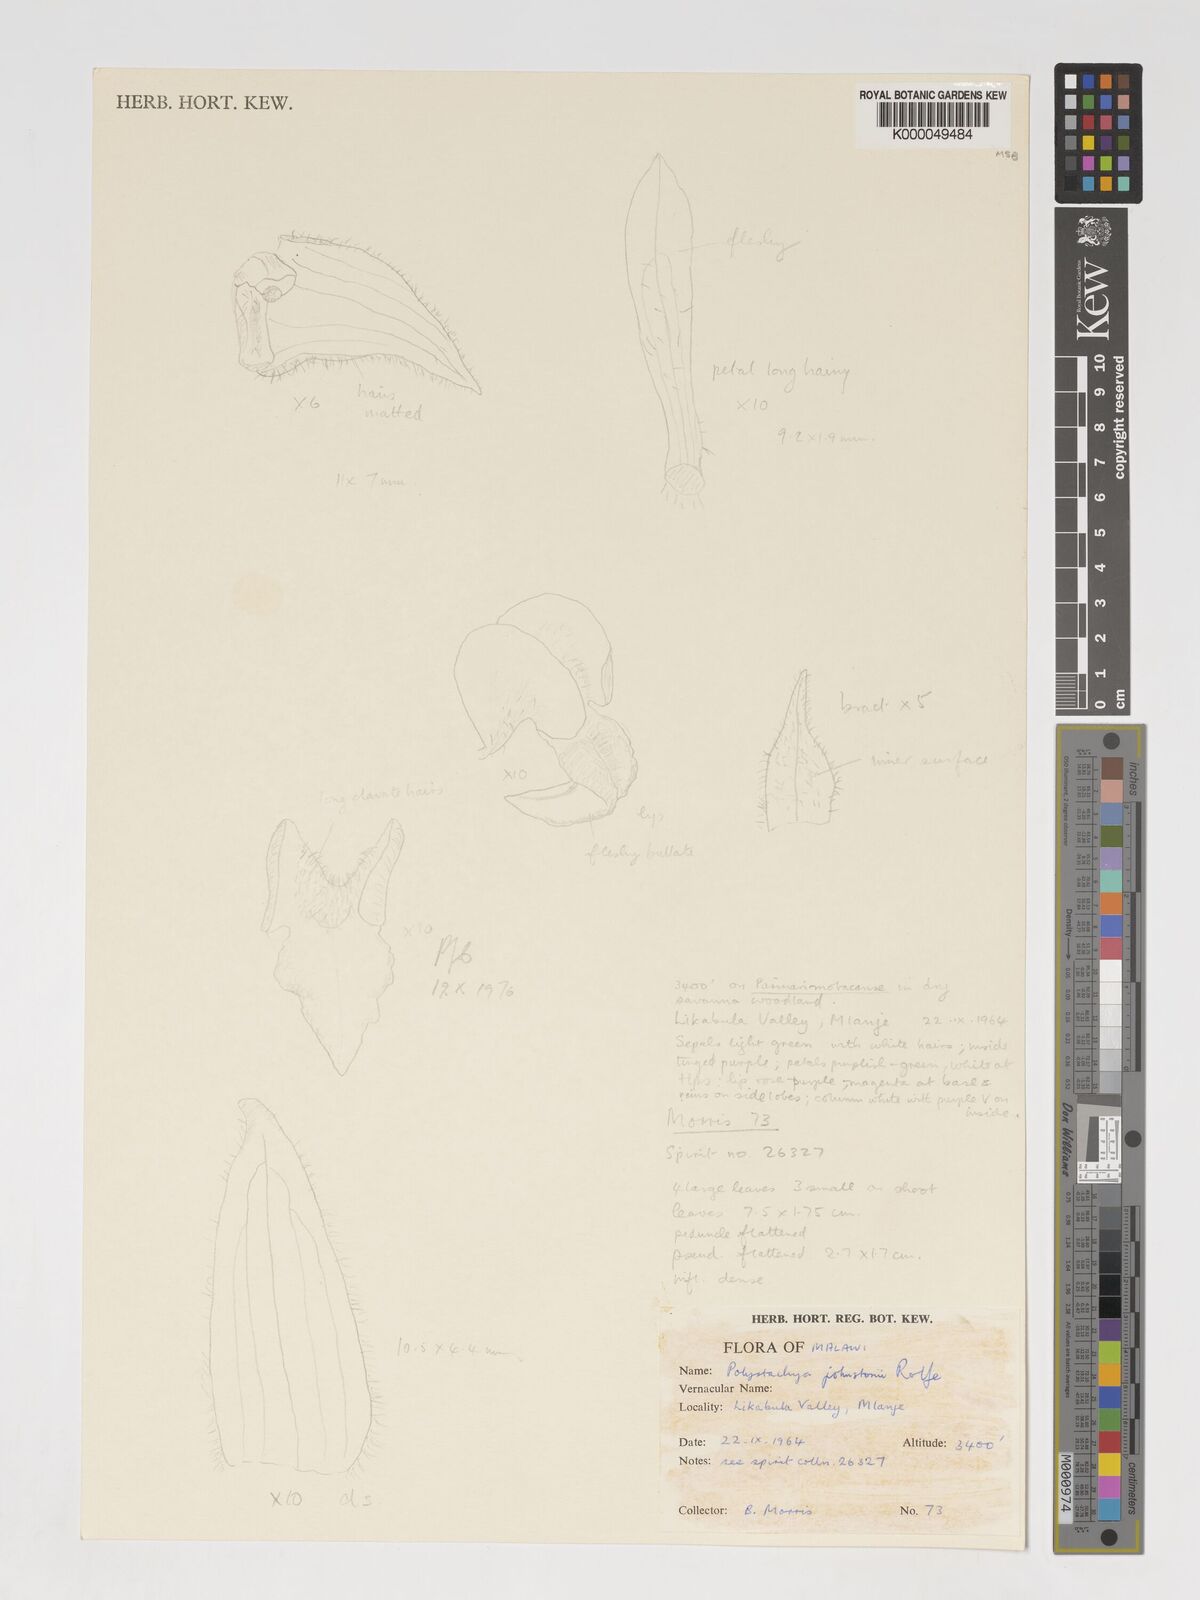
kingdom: Plantae
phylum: Tracheophyta
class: Liliopsida
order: Asparagales
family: Orchidaceae
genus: Polystachya
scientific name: Polystachya johnstonii
